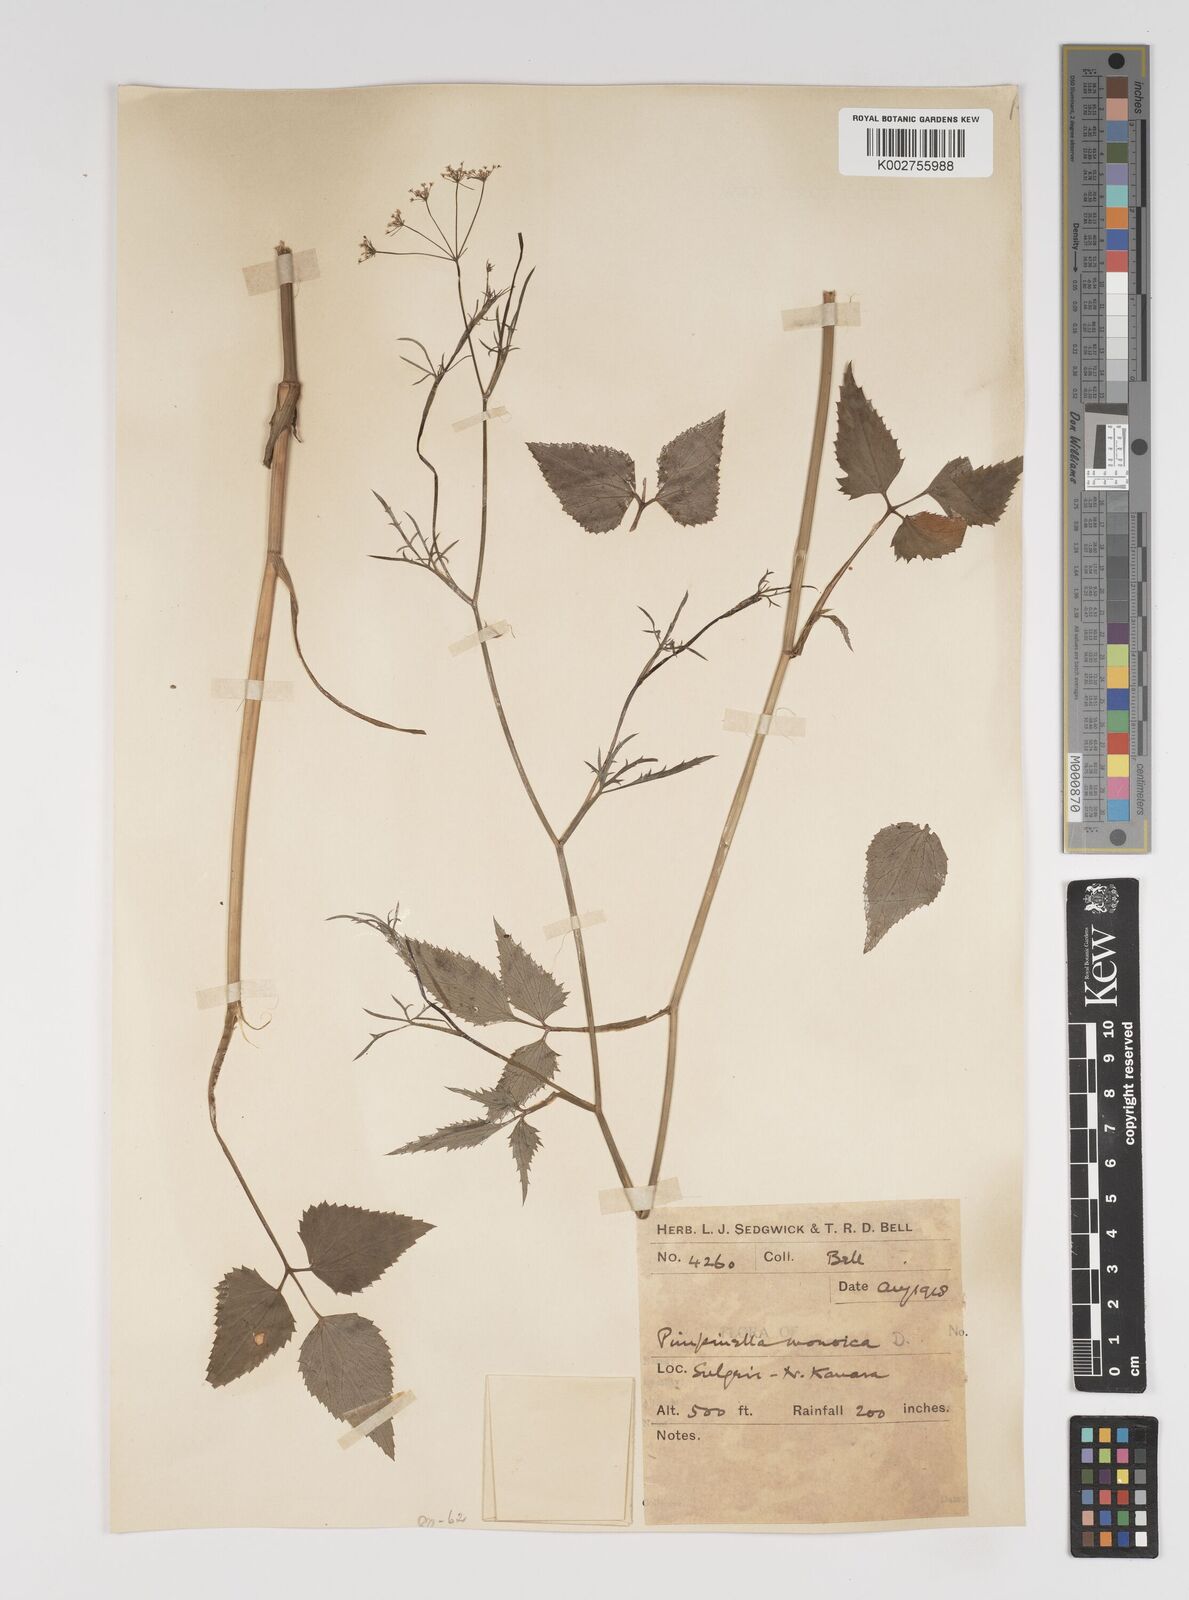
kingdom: Plantae
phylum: Tracheophyta
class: Magnoliopsida
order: Apiales
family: Apiaceae
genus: Pimpinella
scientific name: Pimpinella wallichiana
